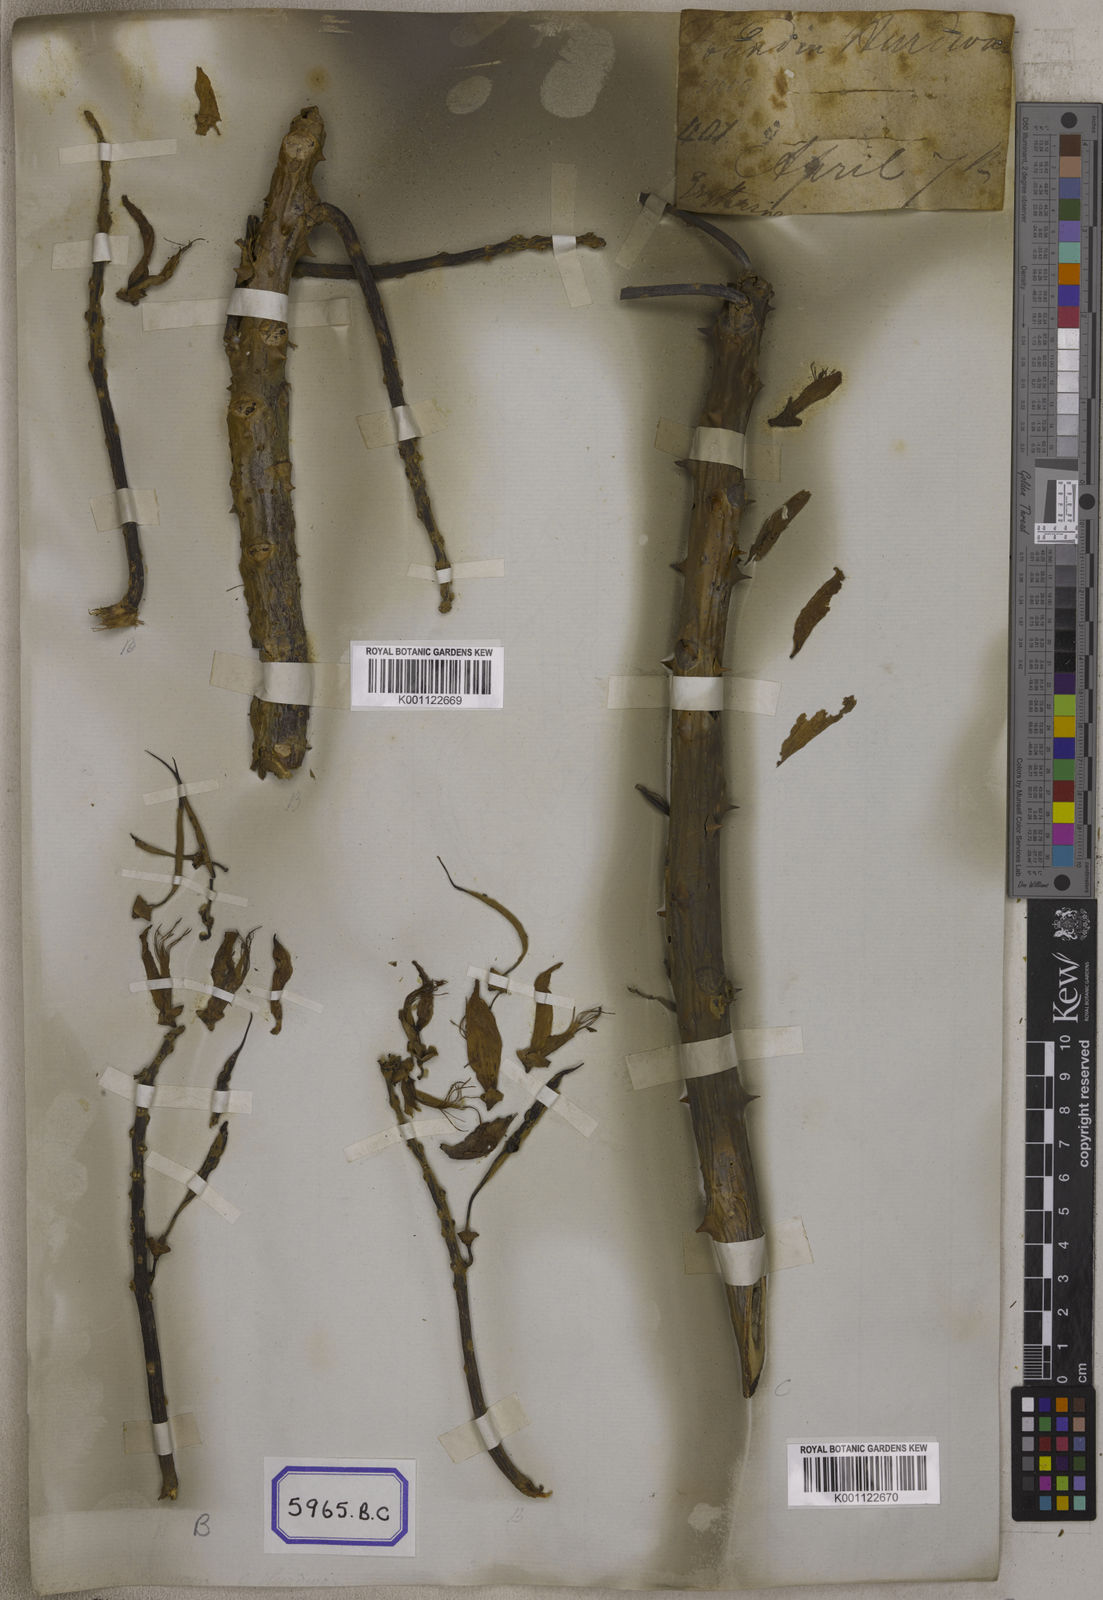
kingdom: Plantae
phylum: Tracheophyta
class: Magnoliopsida
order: Fabales
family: Fabaceae
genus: Erythrina
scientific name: Erythrina
